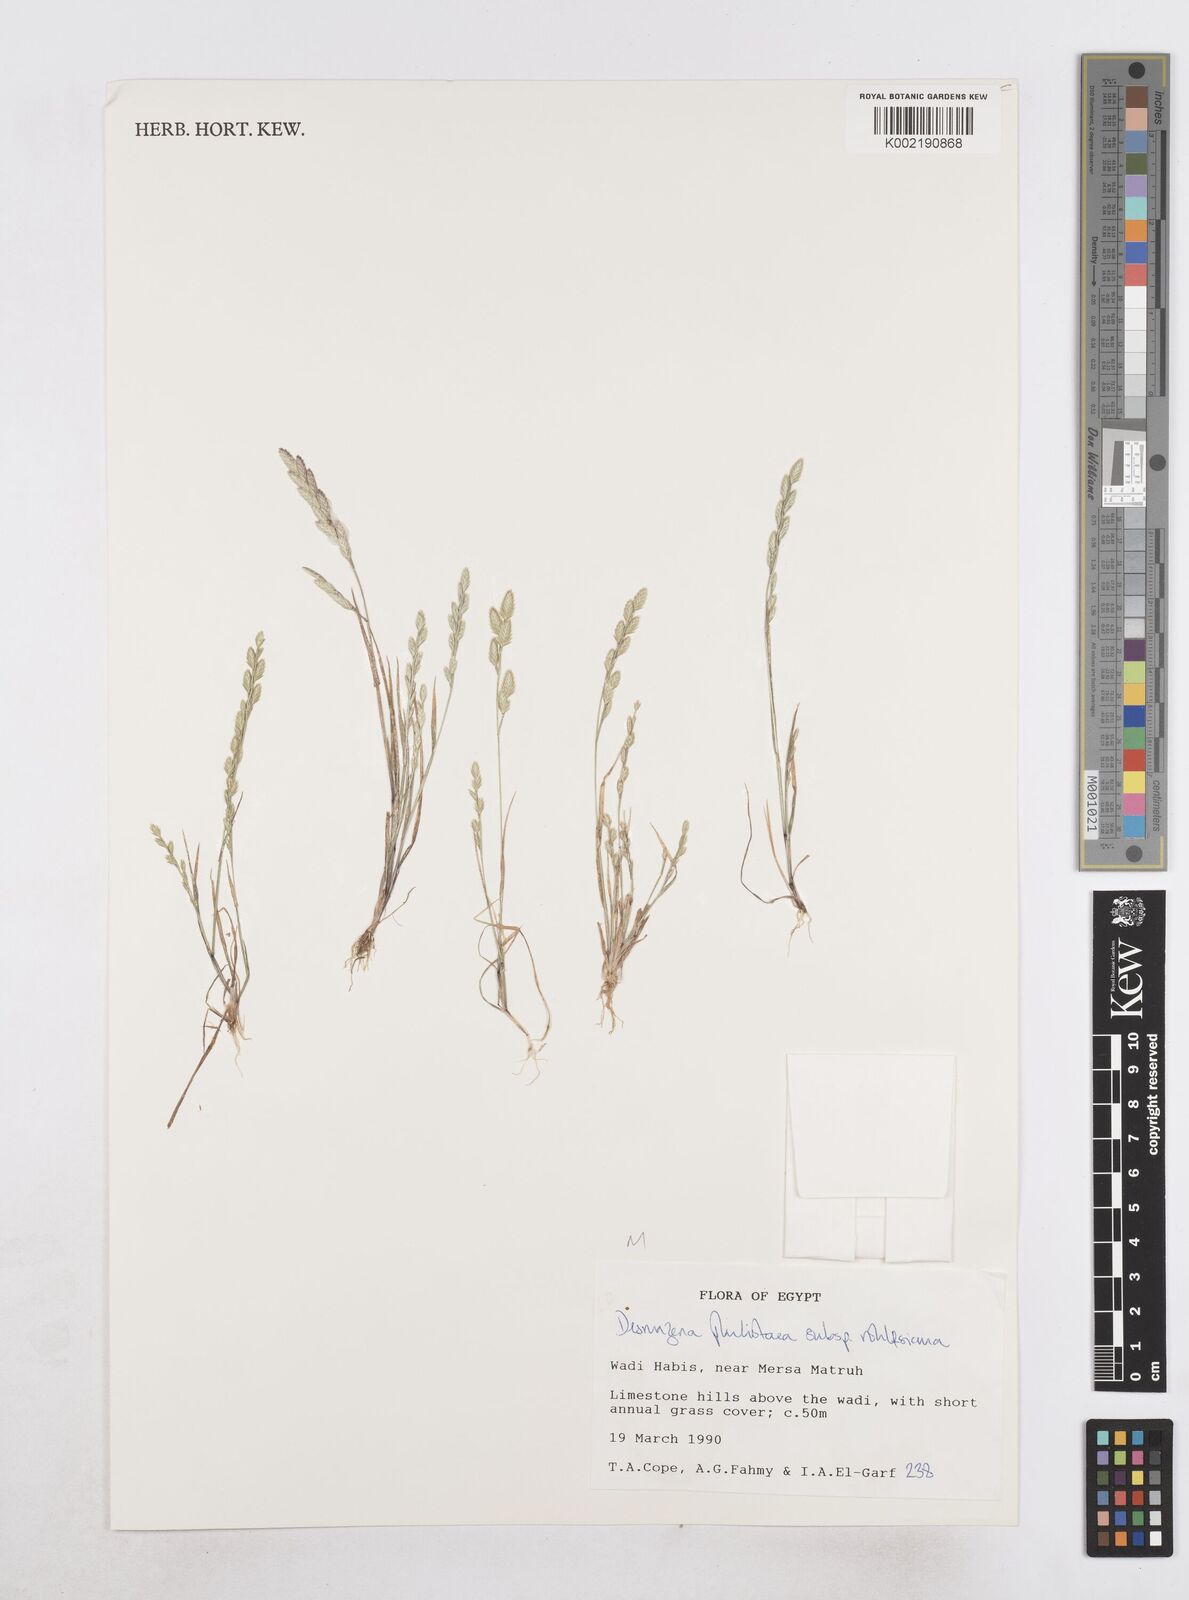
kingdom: Plantae
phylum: Tracheophyta
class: Liliopsida
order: Poales
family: Poaceae
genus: Desmazeria
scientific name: Desmazeria philistaea
